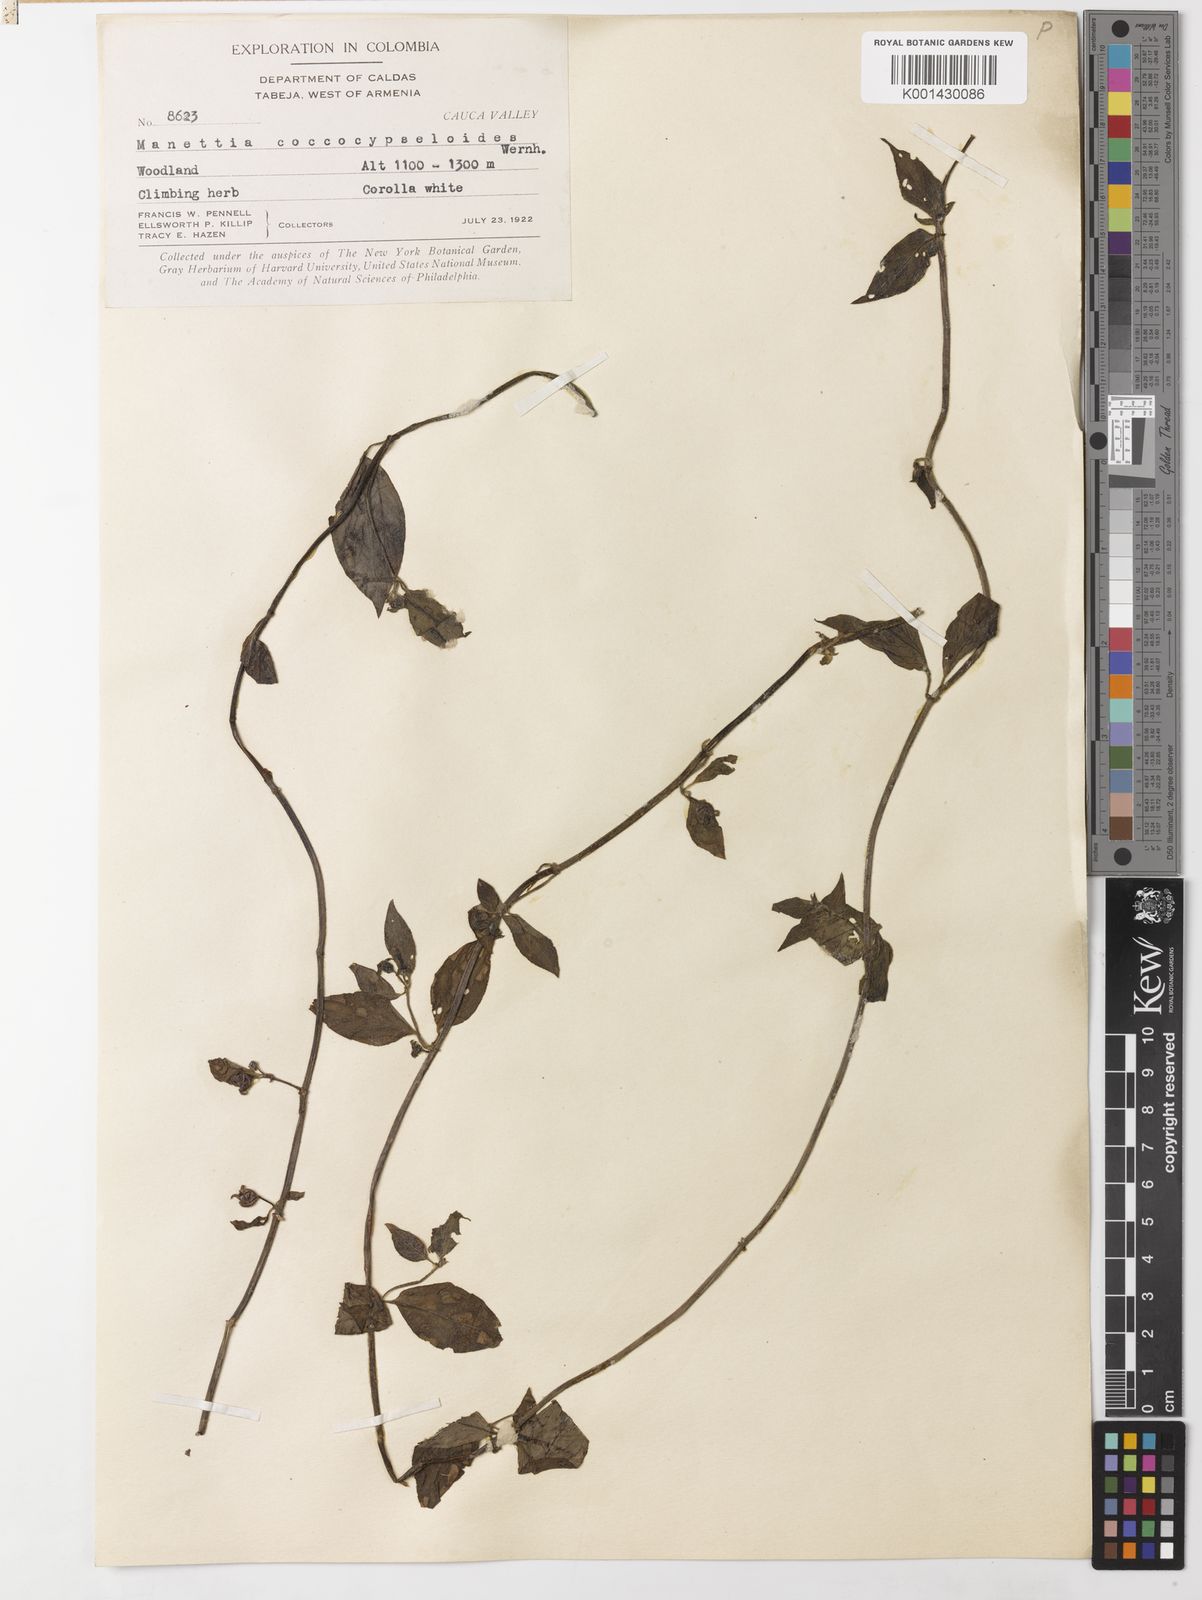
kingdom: Plantae
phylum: Tracheophyta
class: Magnoliopsida
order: Gentianales
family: Rubiaceae
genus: Manettia
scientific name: Manettia coccocypseloides
